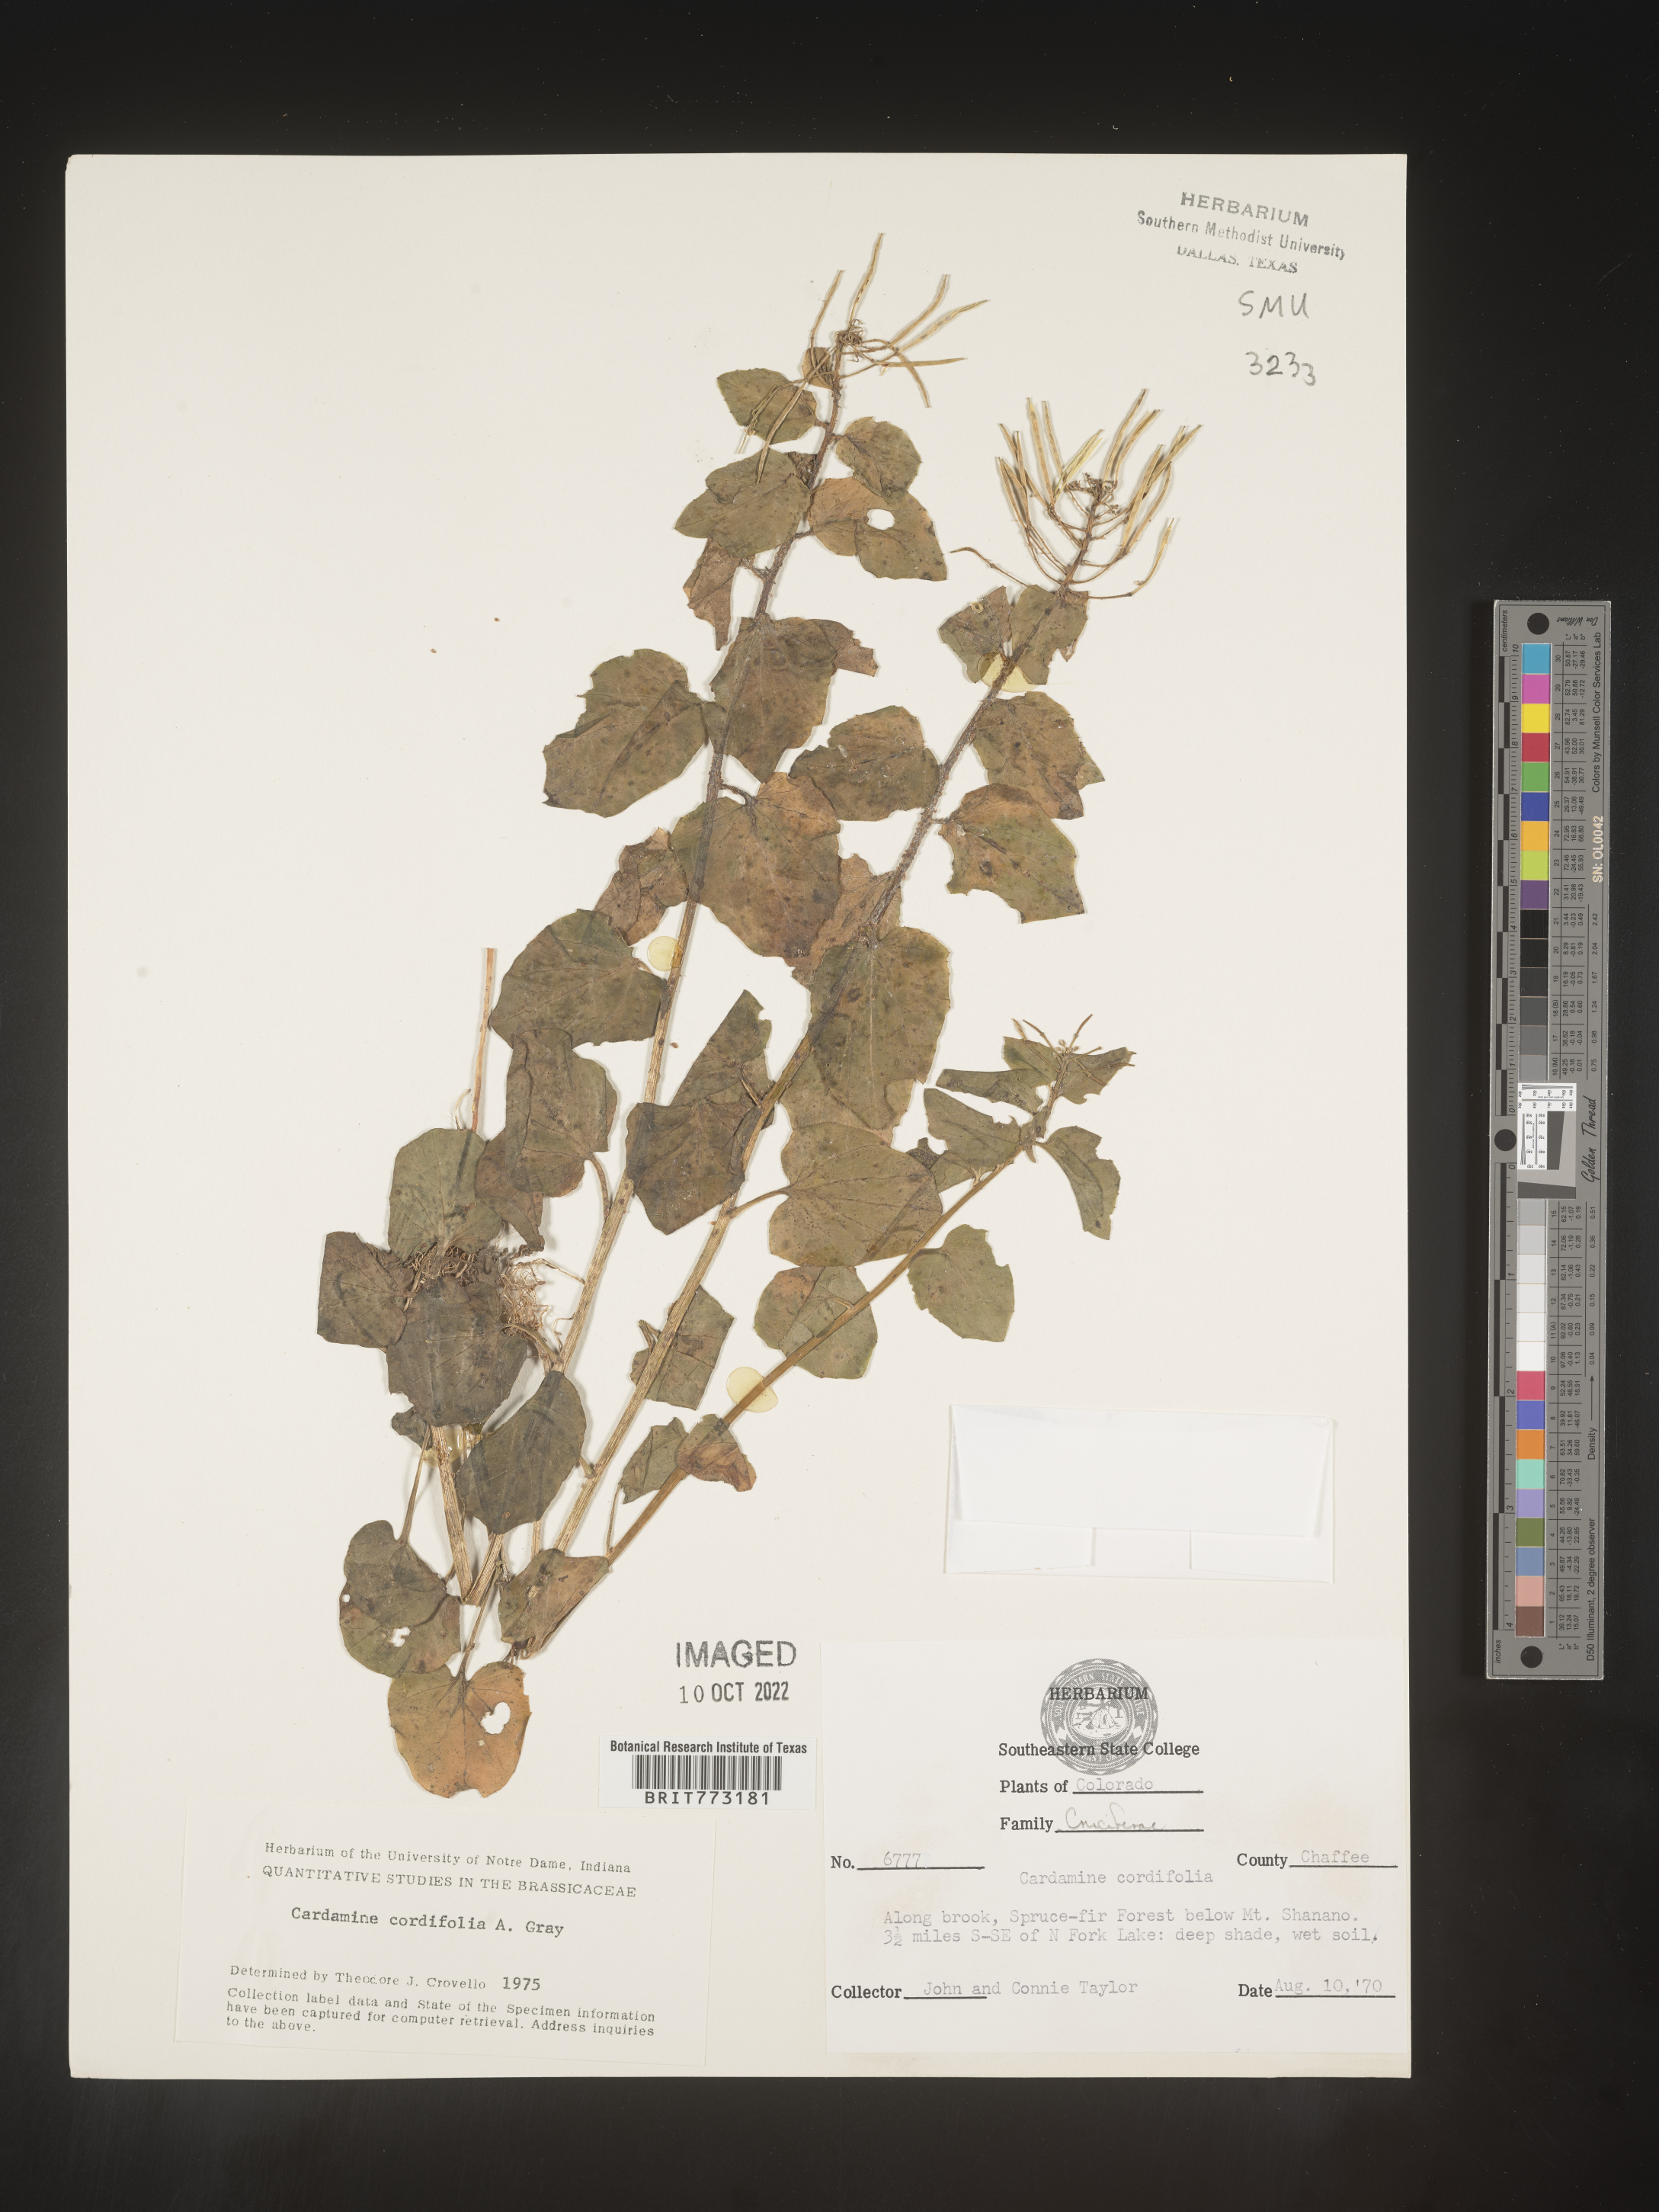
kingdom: Plantae
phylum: Tracheophyta
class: Magnoliopsida
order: Brassicales
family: Brassicaceae
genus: Cardamine
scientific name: Cardamine
